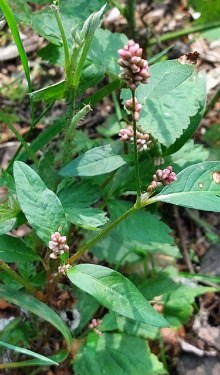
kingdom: Plantae
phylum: Tracheophyta
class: Magnoliopsida
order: Caryophyllales
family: Polygonaceae
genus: Persicaria
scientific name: Persicaria lapathifolia
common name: Knudet pileurt (underart)
